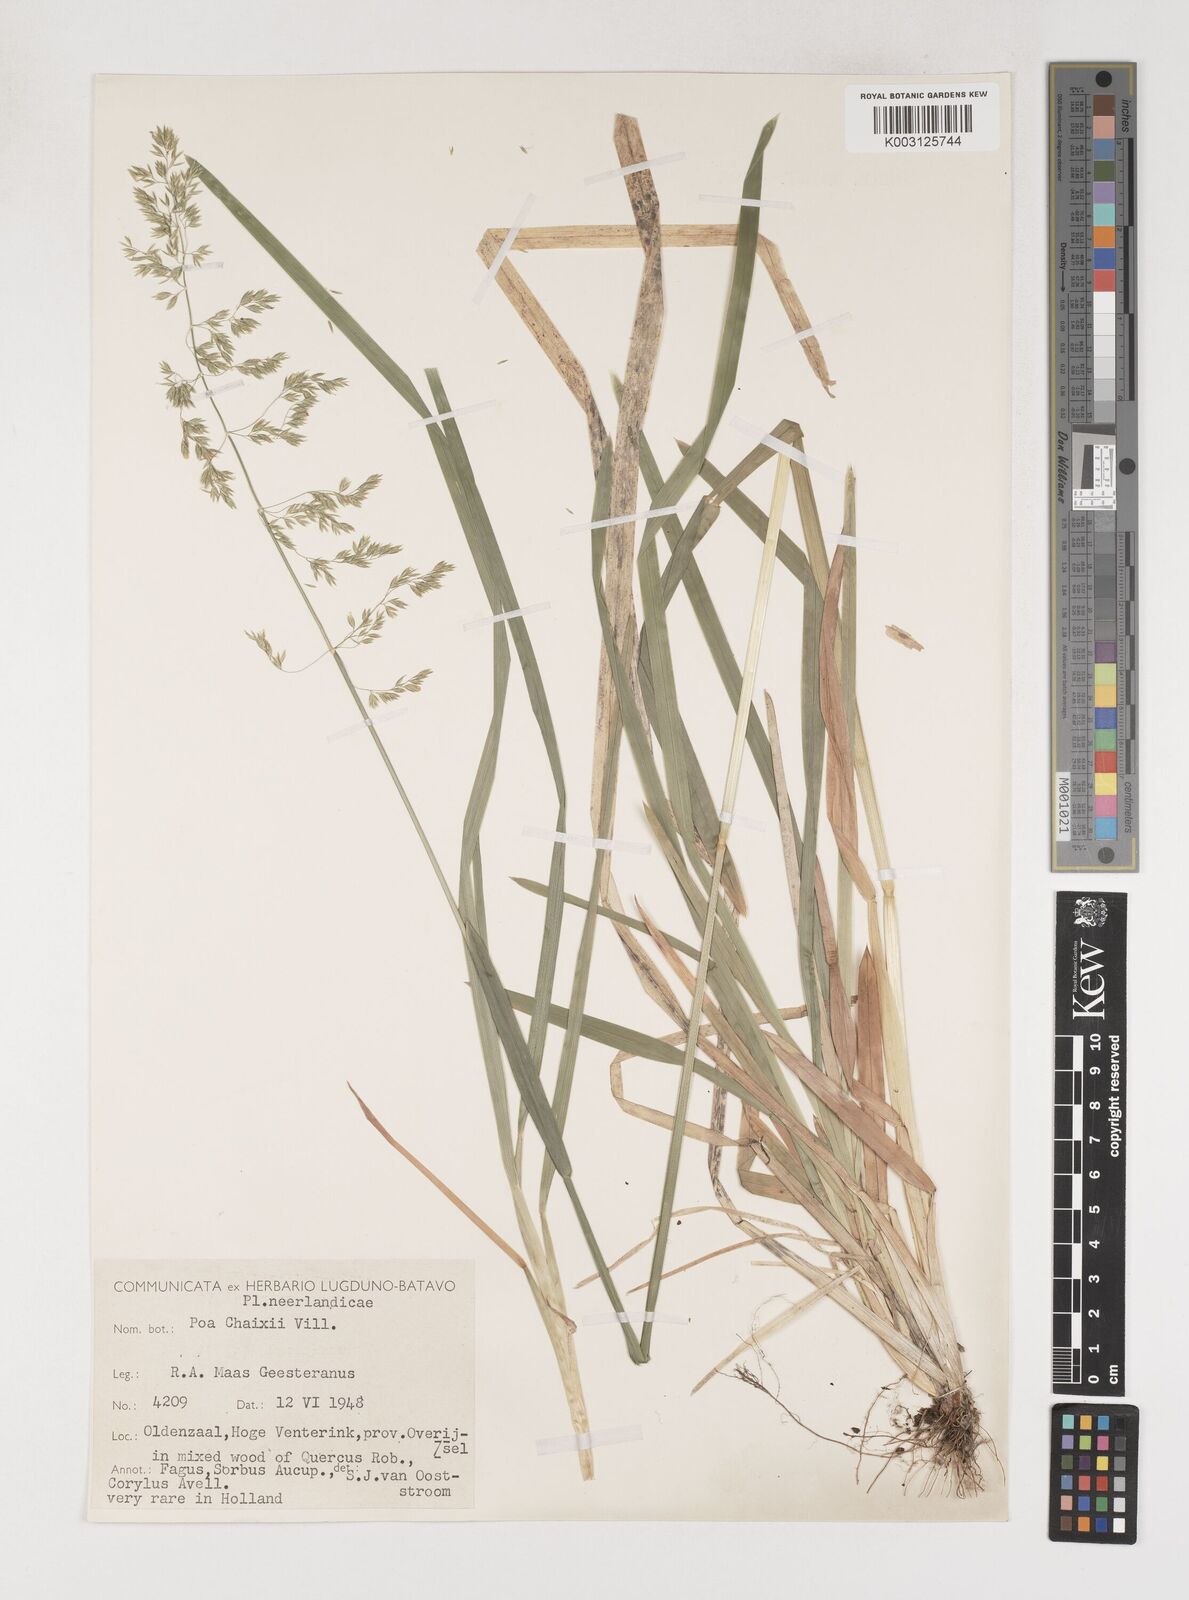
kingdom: Plantae
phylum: Tracheophyta
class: Liliopsida
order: Poales
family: Poaceae
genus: Poa
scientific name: Poa chaixii
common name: Broad-leaved meadow-grass
